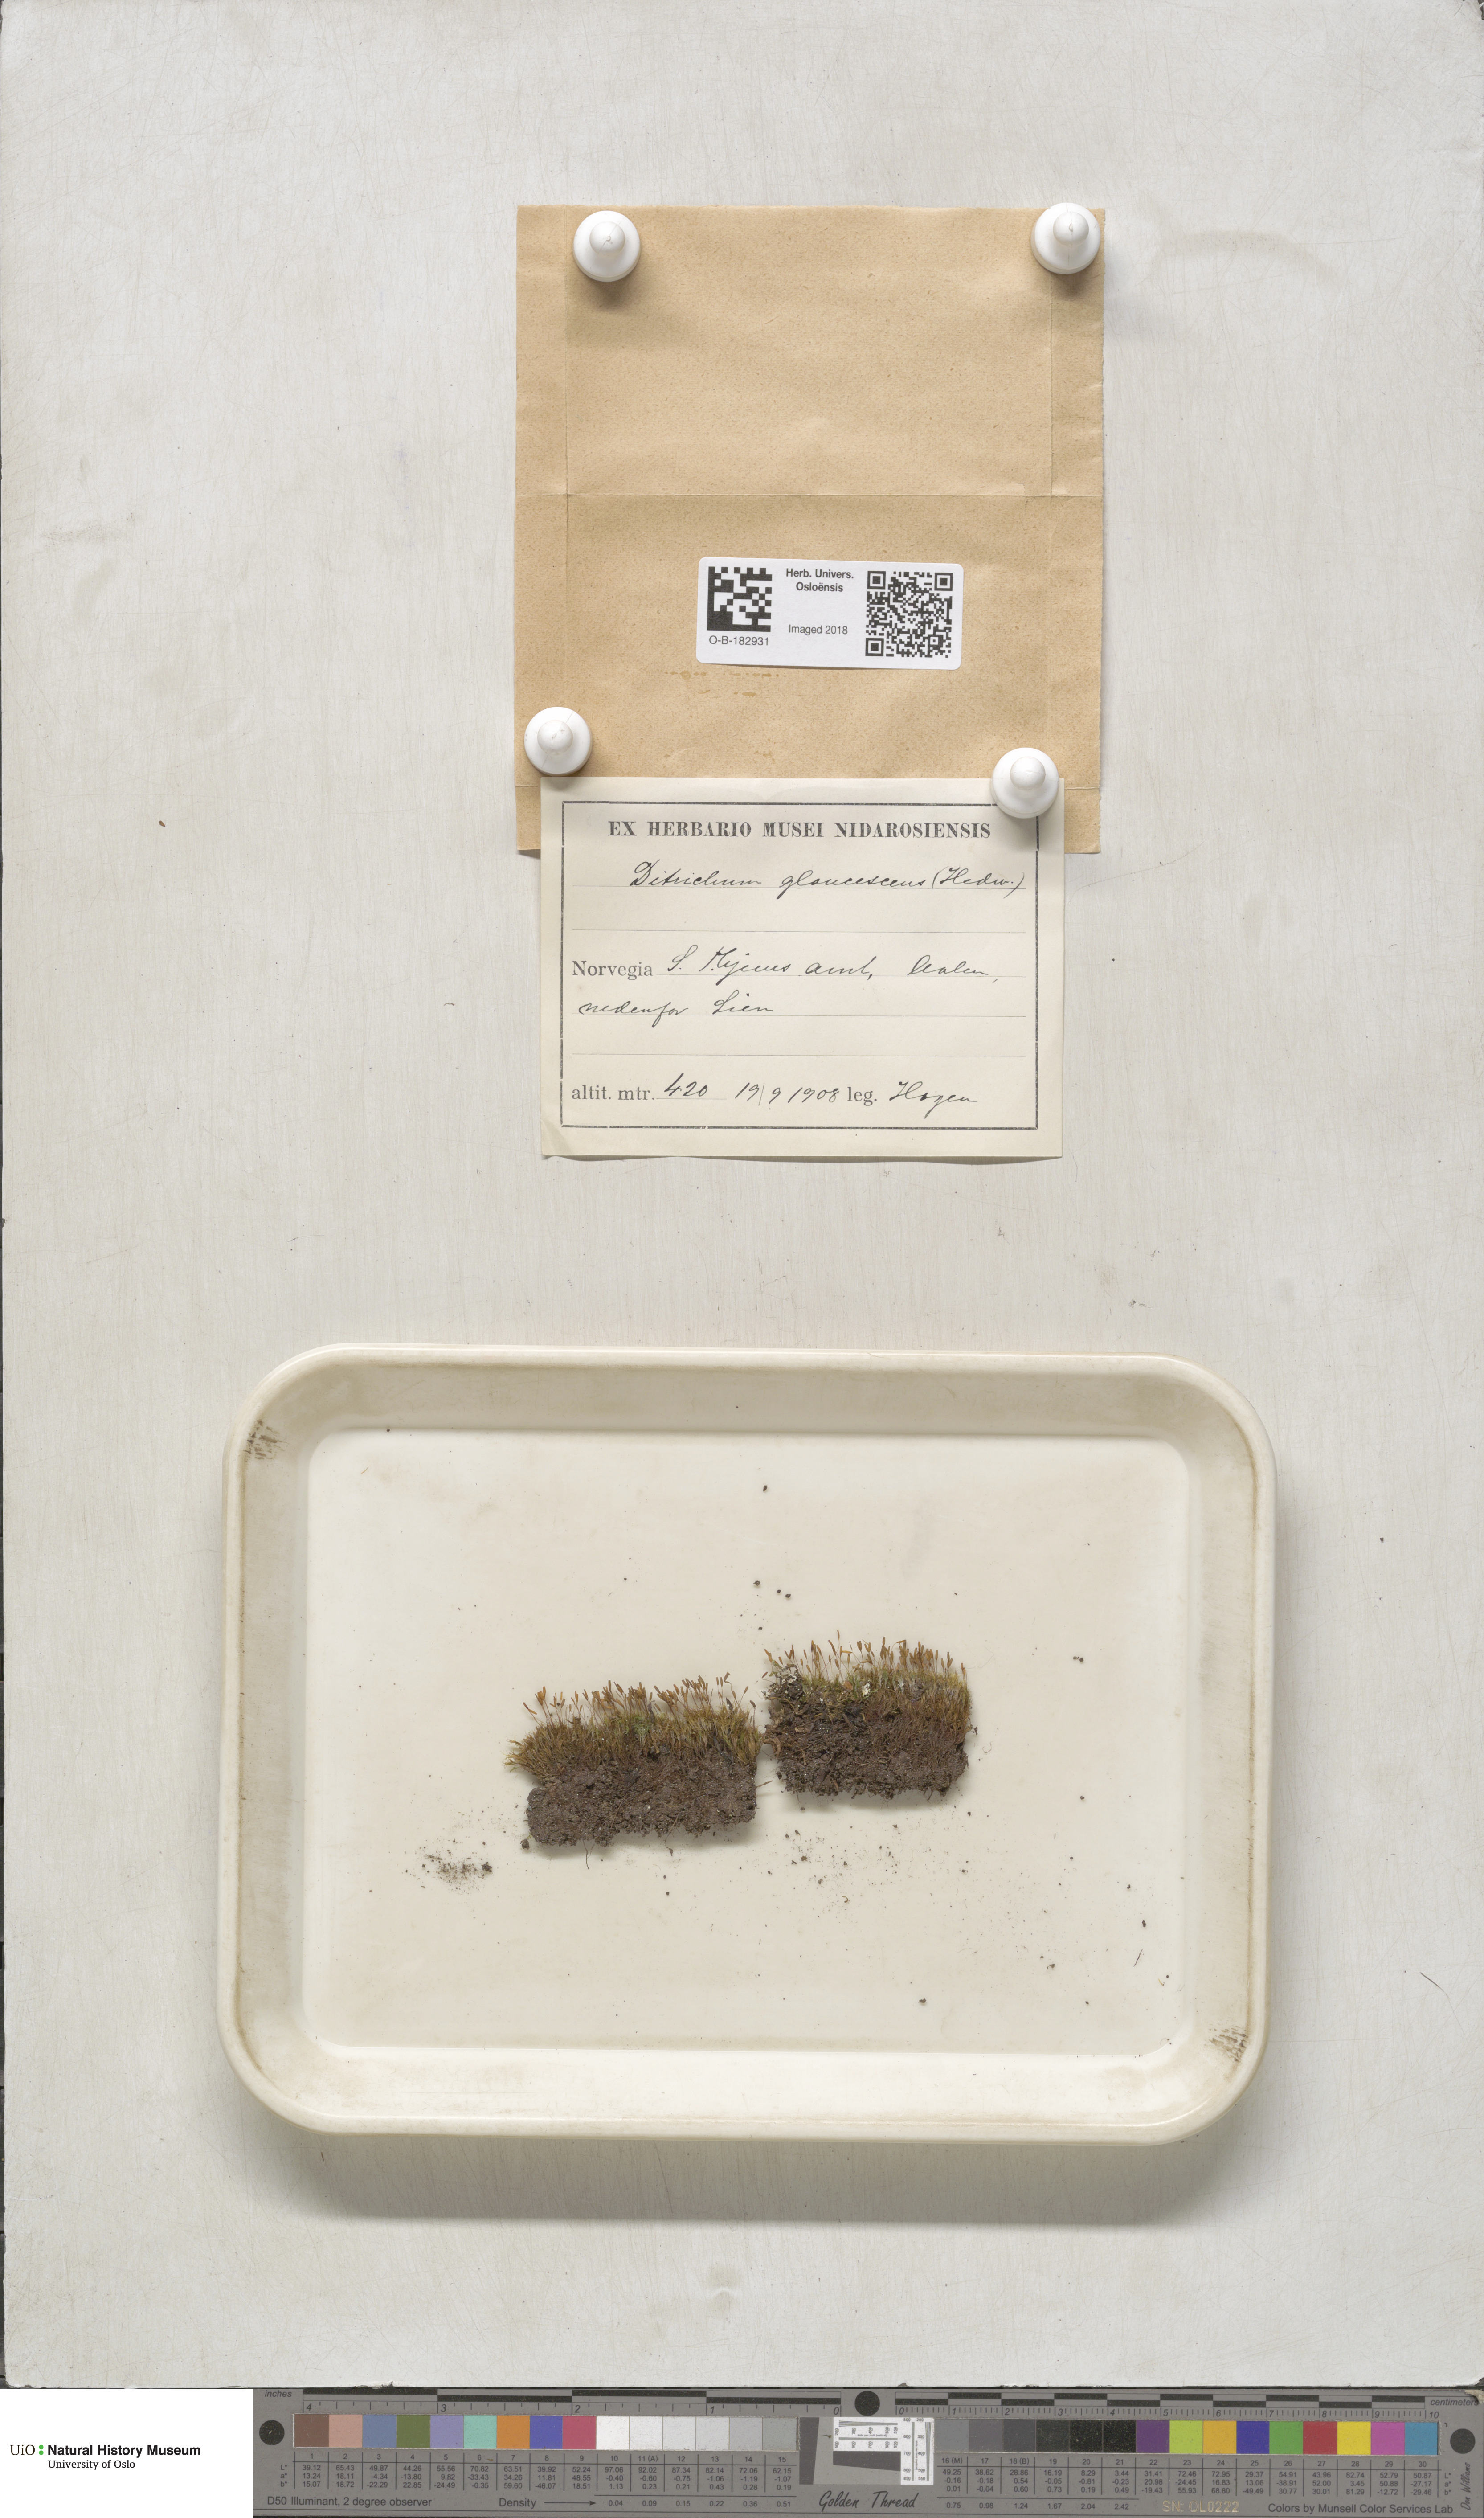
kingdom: Plantae
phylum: Bryophyta
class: Bryopsida
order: Grimmiales
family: Saelaniaceae
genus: Saelania
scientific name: Saelania glaucescens
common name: Blue dew-moss
